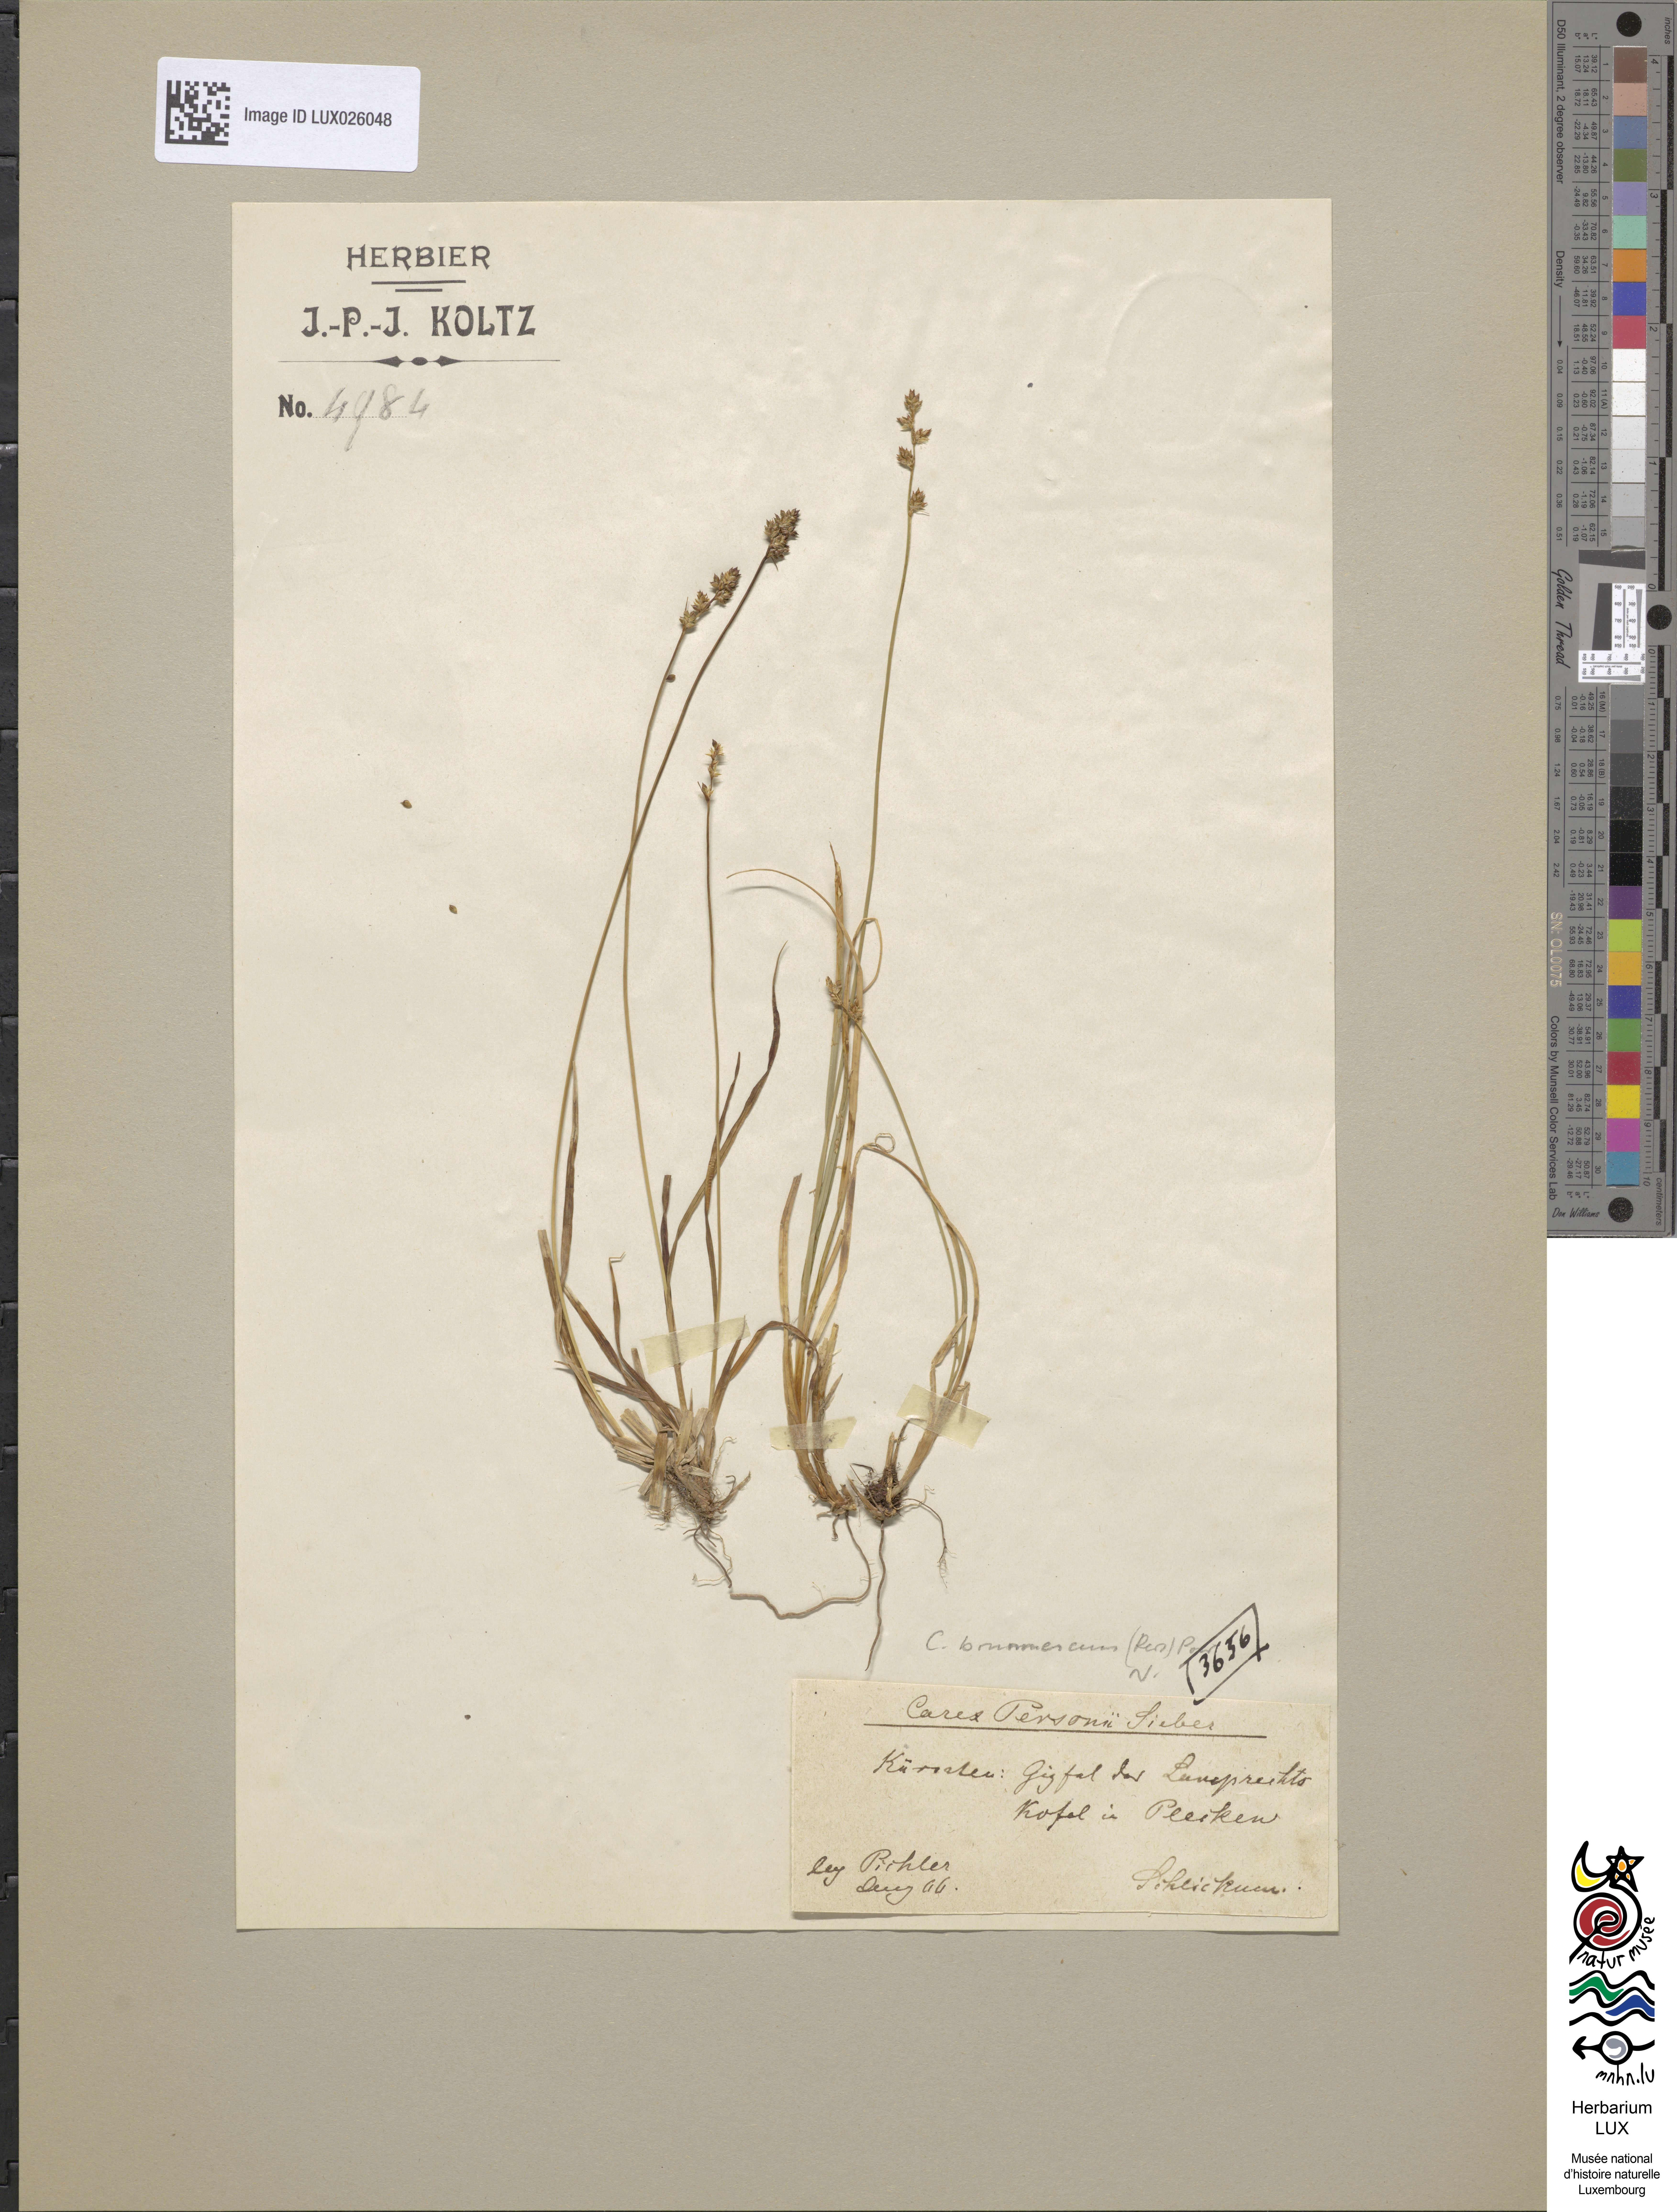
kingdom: Plantae
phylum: Tracheophyta
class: Liliopsida
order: Poales
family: Cyperaceae
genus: Carex
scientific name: Carex brunnescens
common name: Brown sedge
